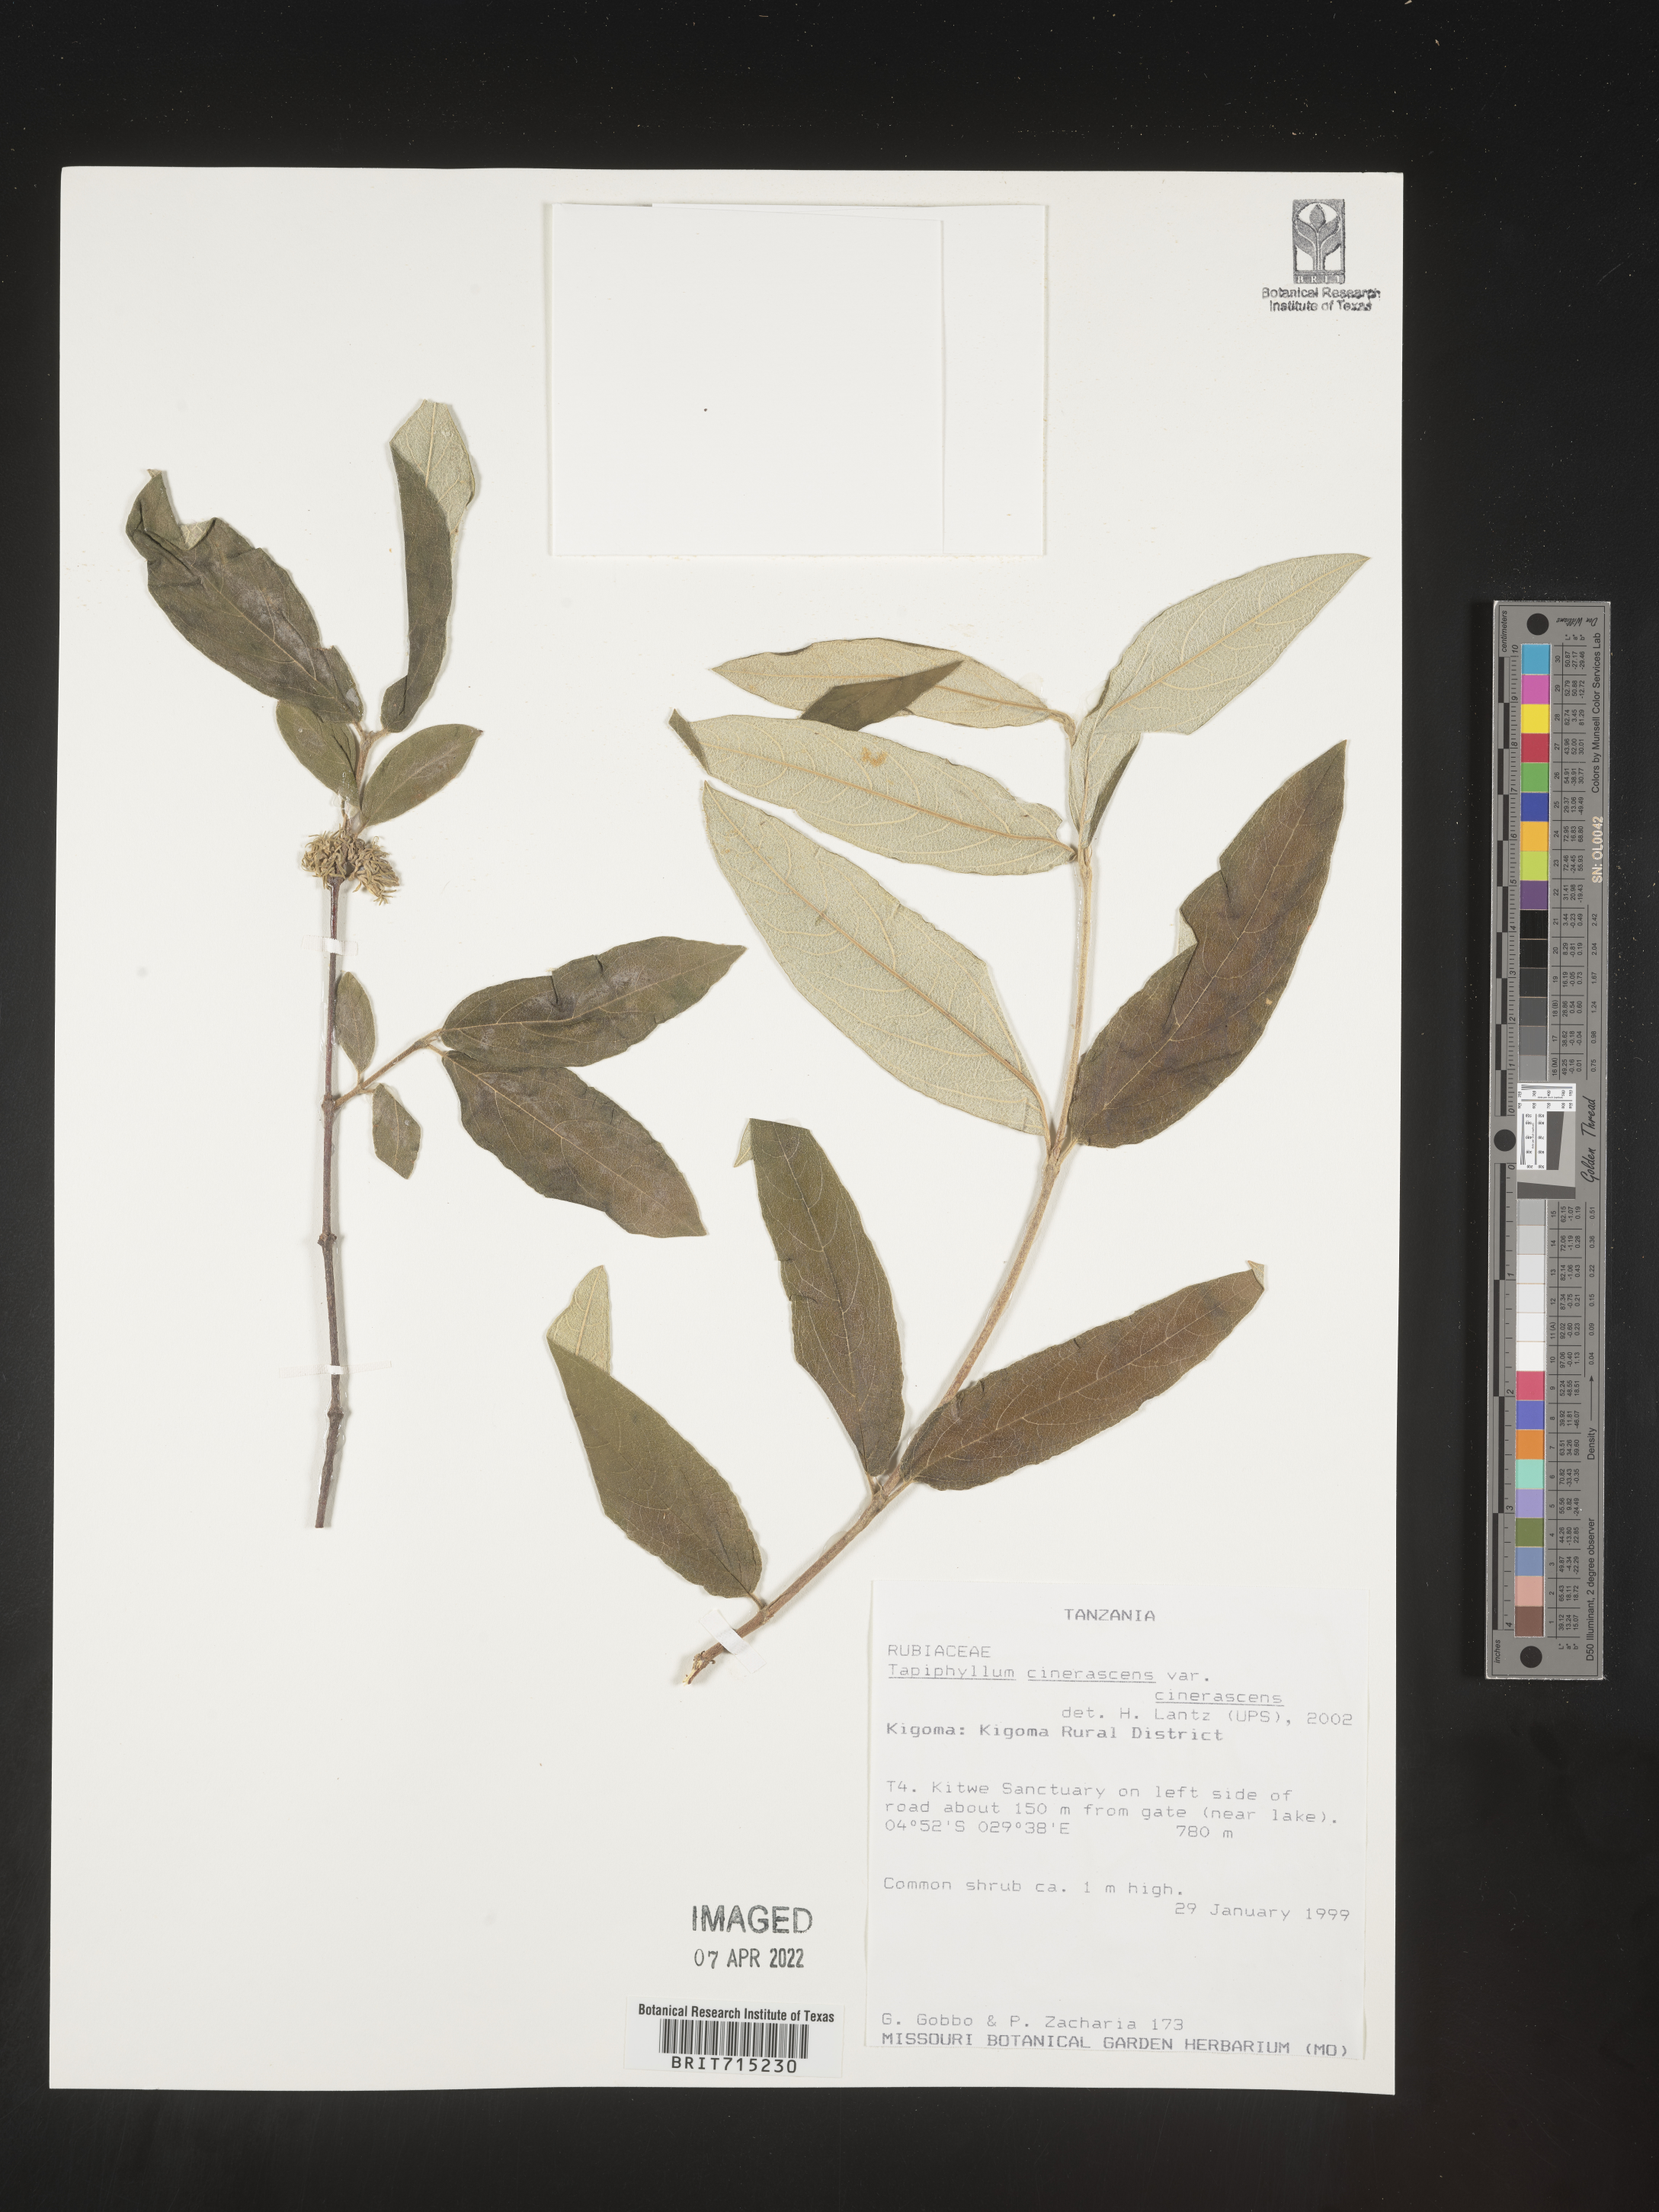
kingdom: Plantae
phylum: Tracheophyta
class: Magnoliopsida
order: Gentianales
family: Rubiaceae
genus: Vangueria
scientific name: Vangueria
